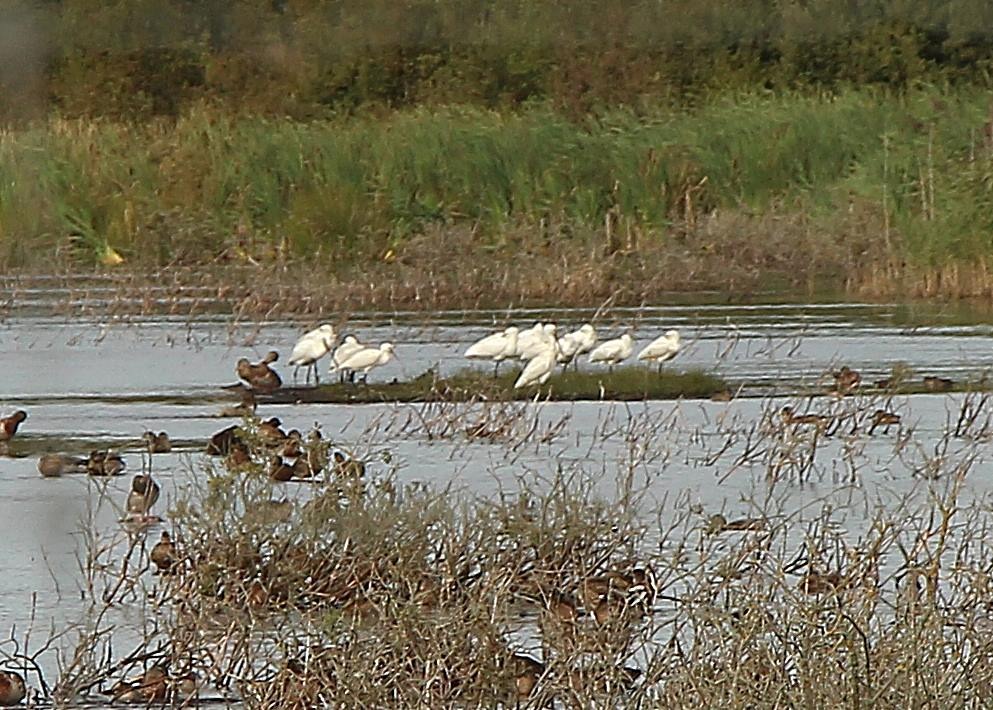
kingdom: Animalia
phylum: Chordata
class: Aves
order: Pelecaniformes
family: Threskiornithidae
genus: Platalea
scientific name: Platalea leucorodia
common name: Skestork
